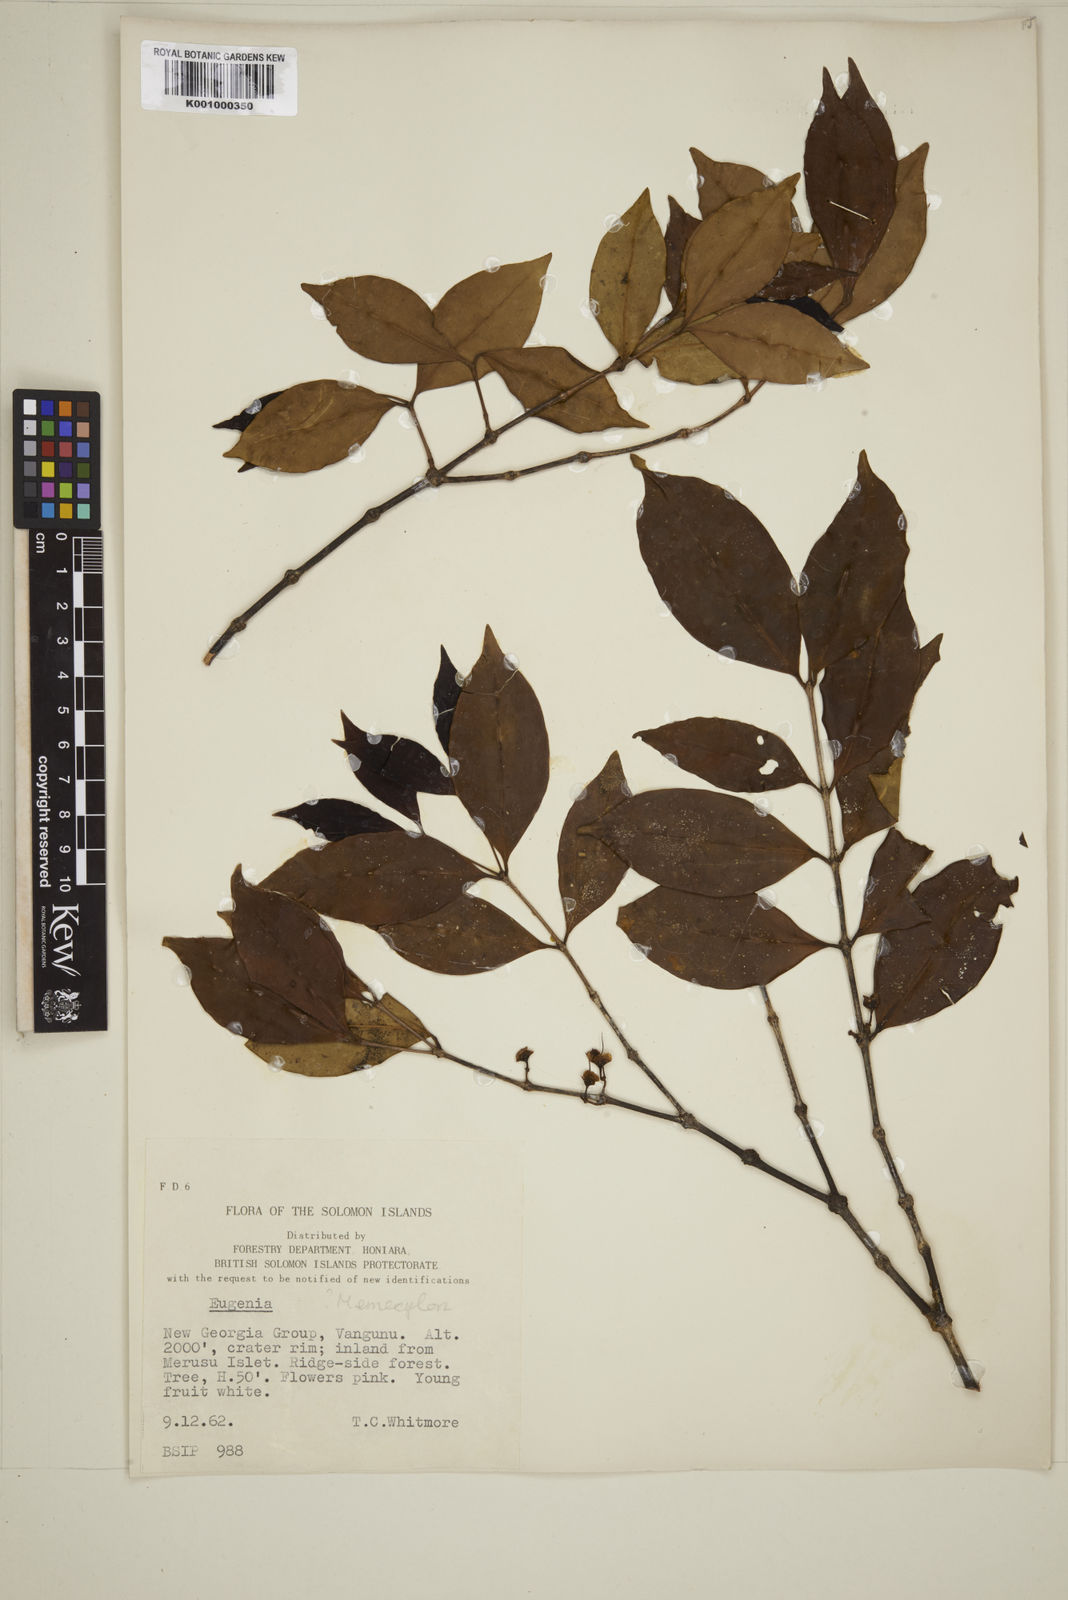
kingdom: Plantae
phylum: Tracheophyta
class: Magnoliopsida
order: Myrtales
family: Myrtaceae
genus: Eugenia
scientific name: Eugenia
